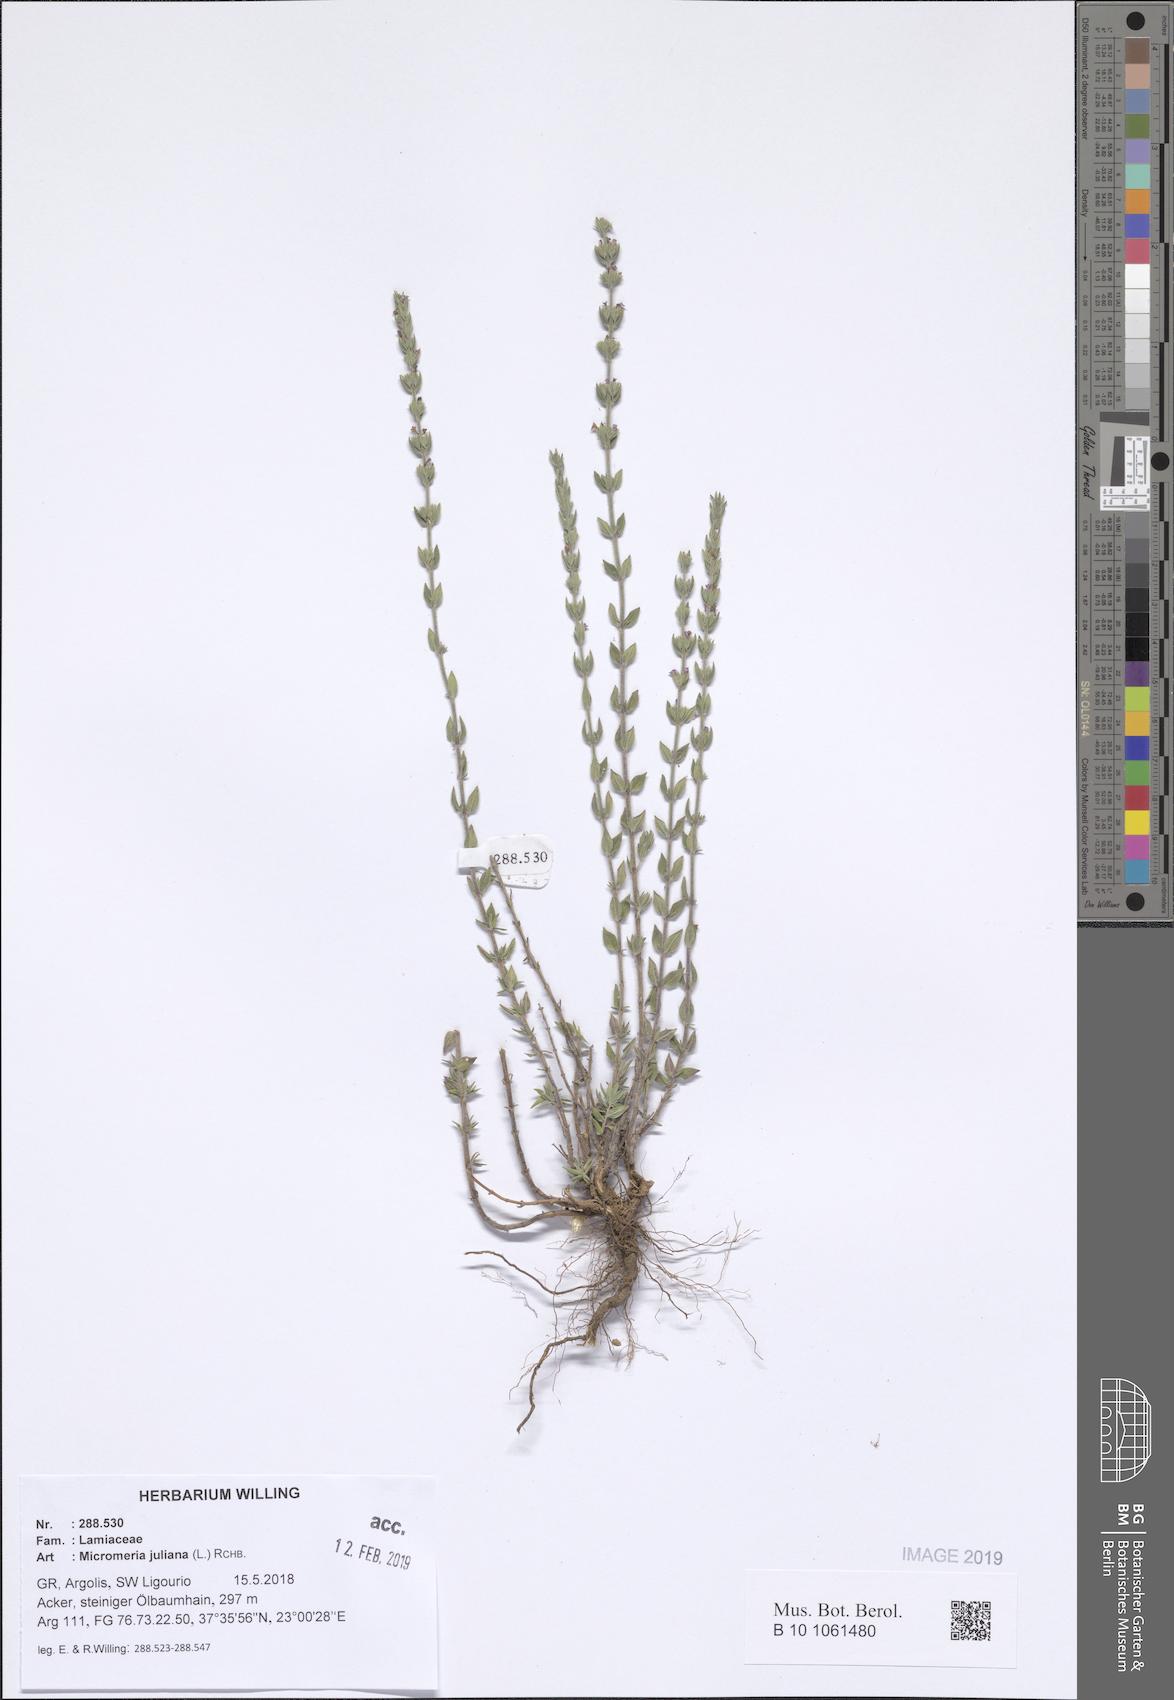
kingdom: Plantae
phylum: Tracheophyta
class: Magnoliopsida
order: Lamiales
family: Lamiaceae
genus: Micromeria
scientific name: Micromeria juliana
